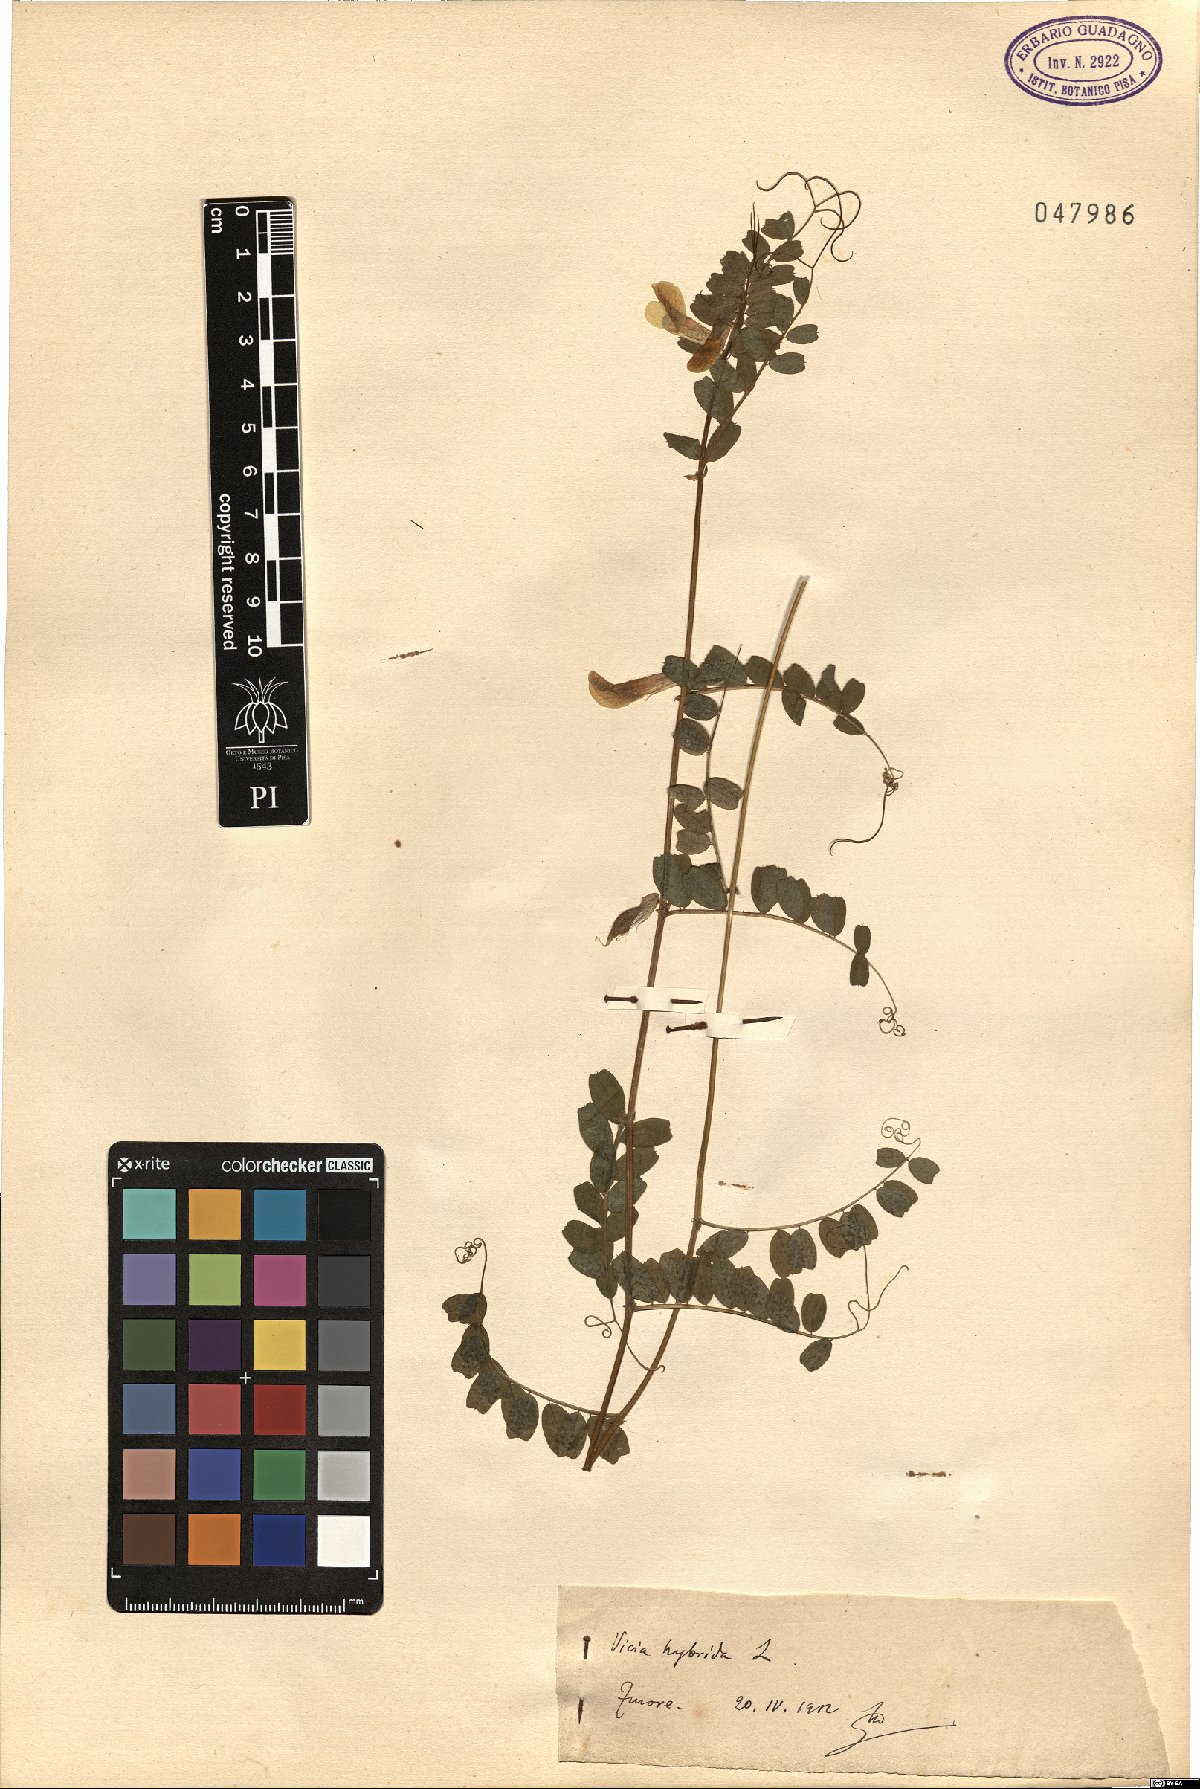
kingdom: Plantae
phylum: Tracheophyta
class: Magnoliopsida
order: Fabales
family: Fabaceae
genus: Vicia
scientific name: Vicia hybrida
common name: Hairy yellow vetch
